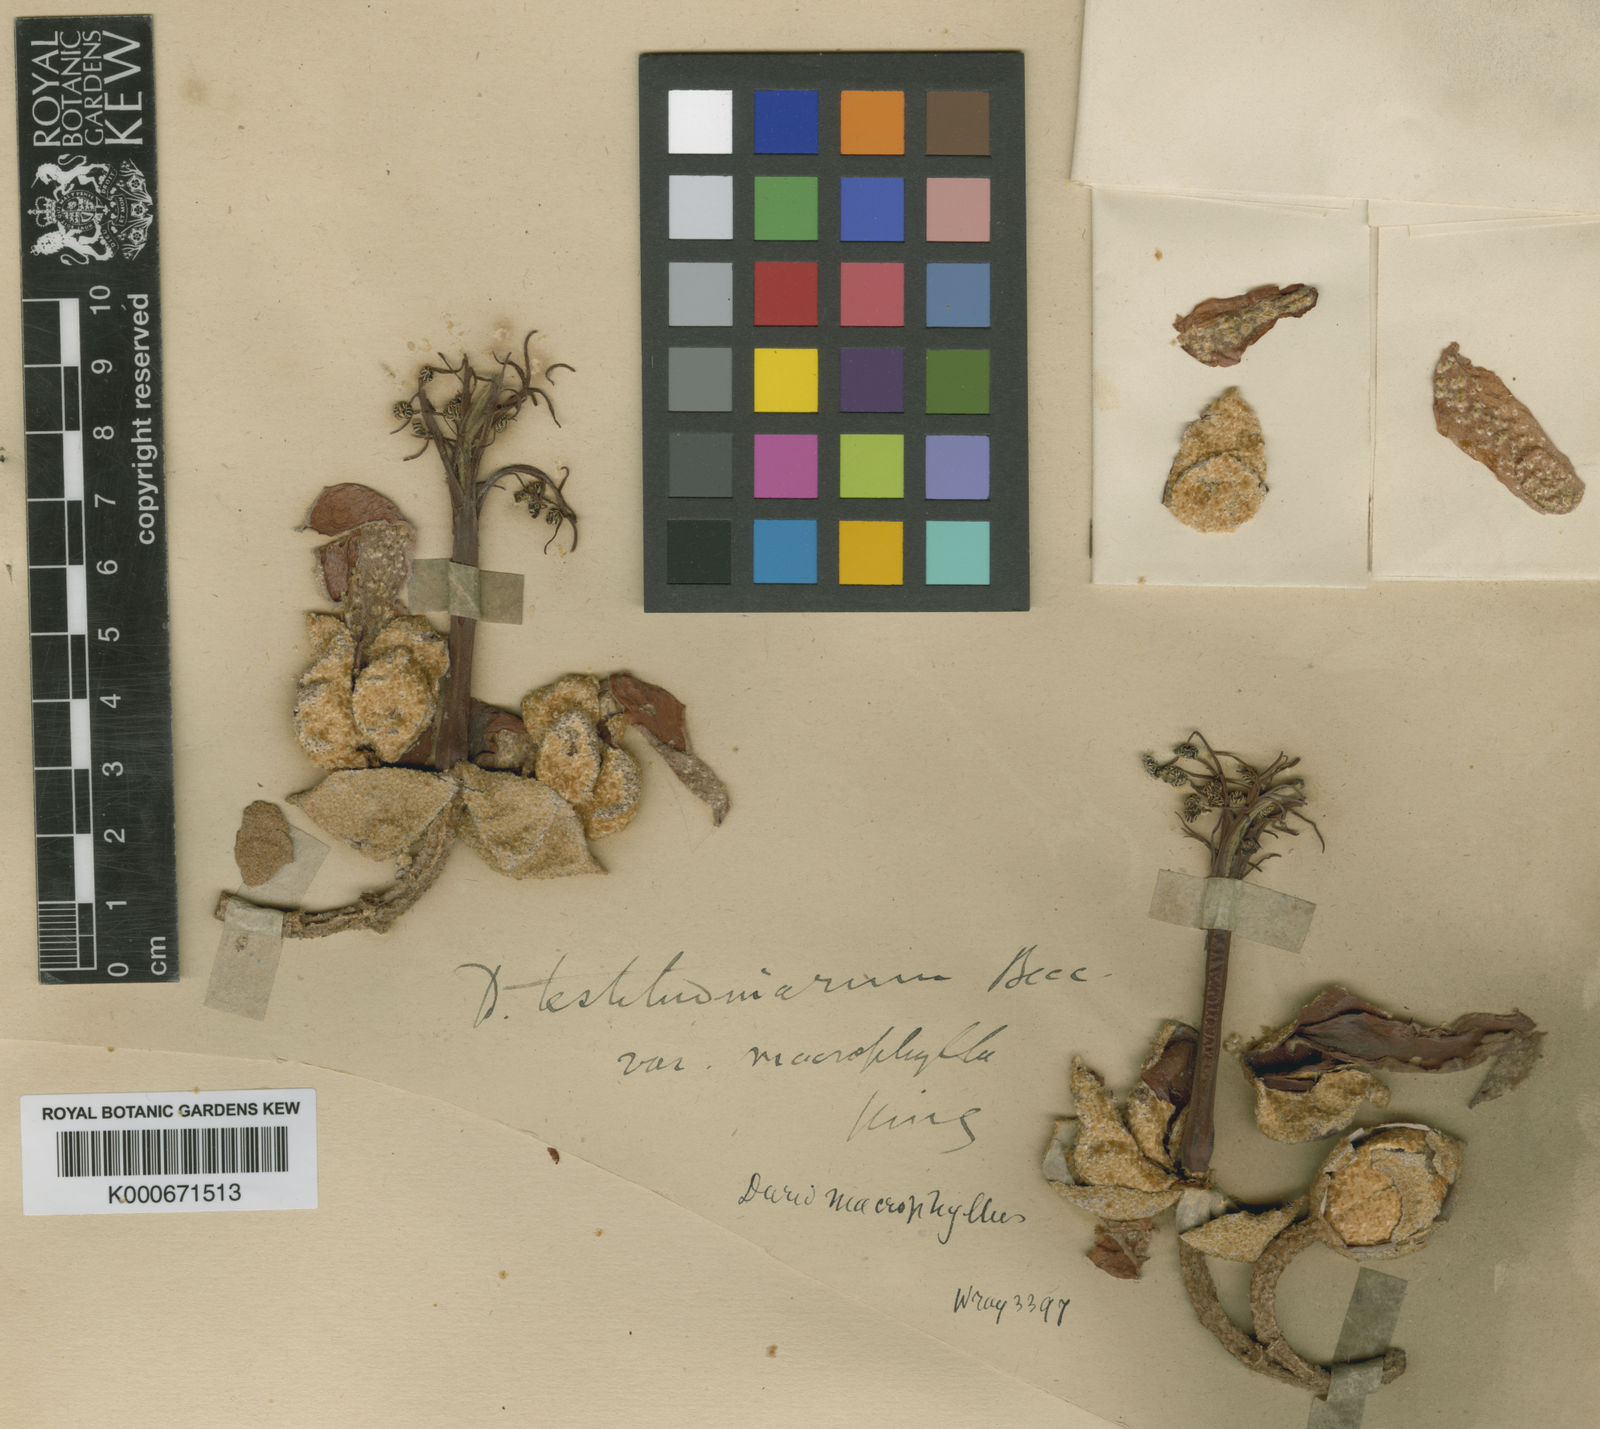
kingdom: Plantae
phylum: Tracheophyta
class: Magnoliopsida
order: Malvales
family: Malvaceae
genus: Durio
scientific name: Durio macrophyllus
